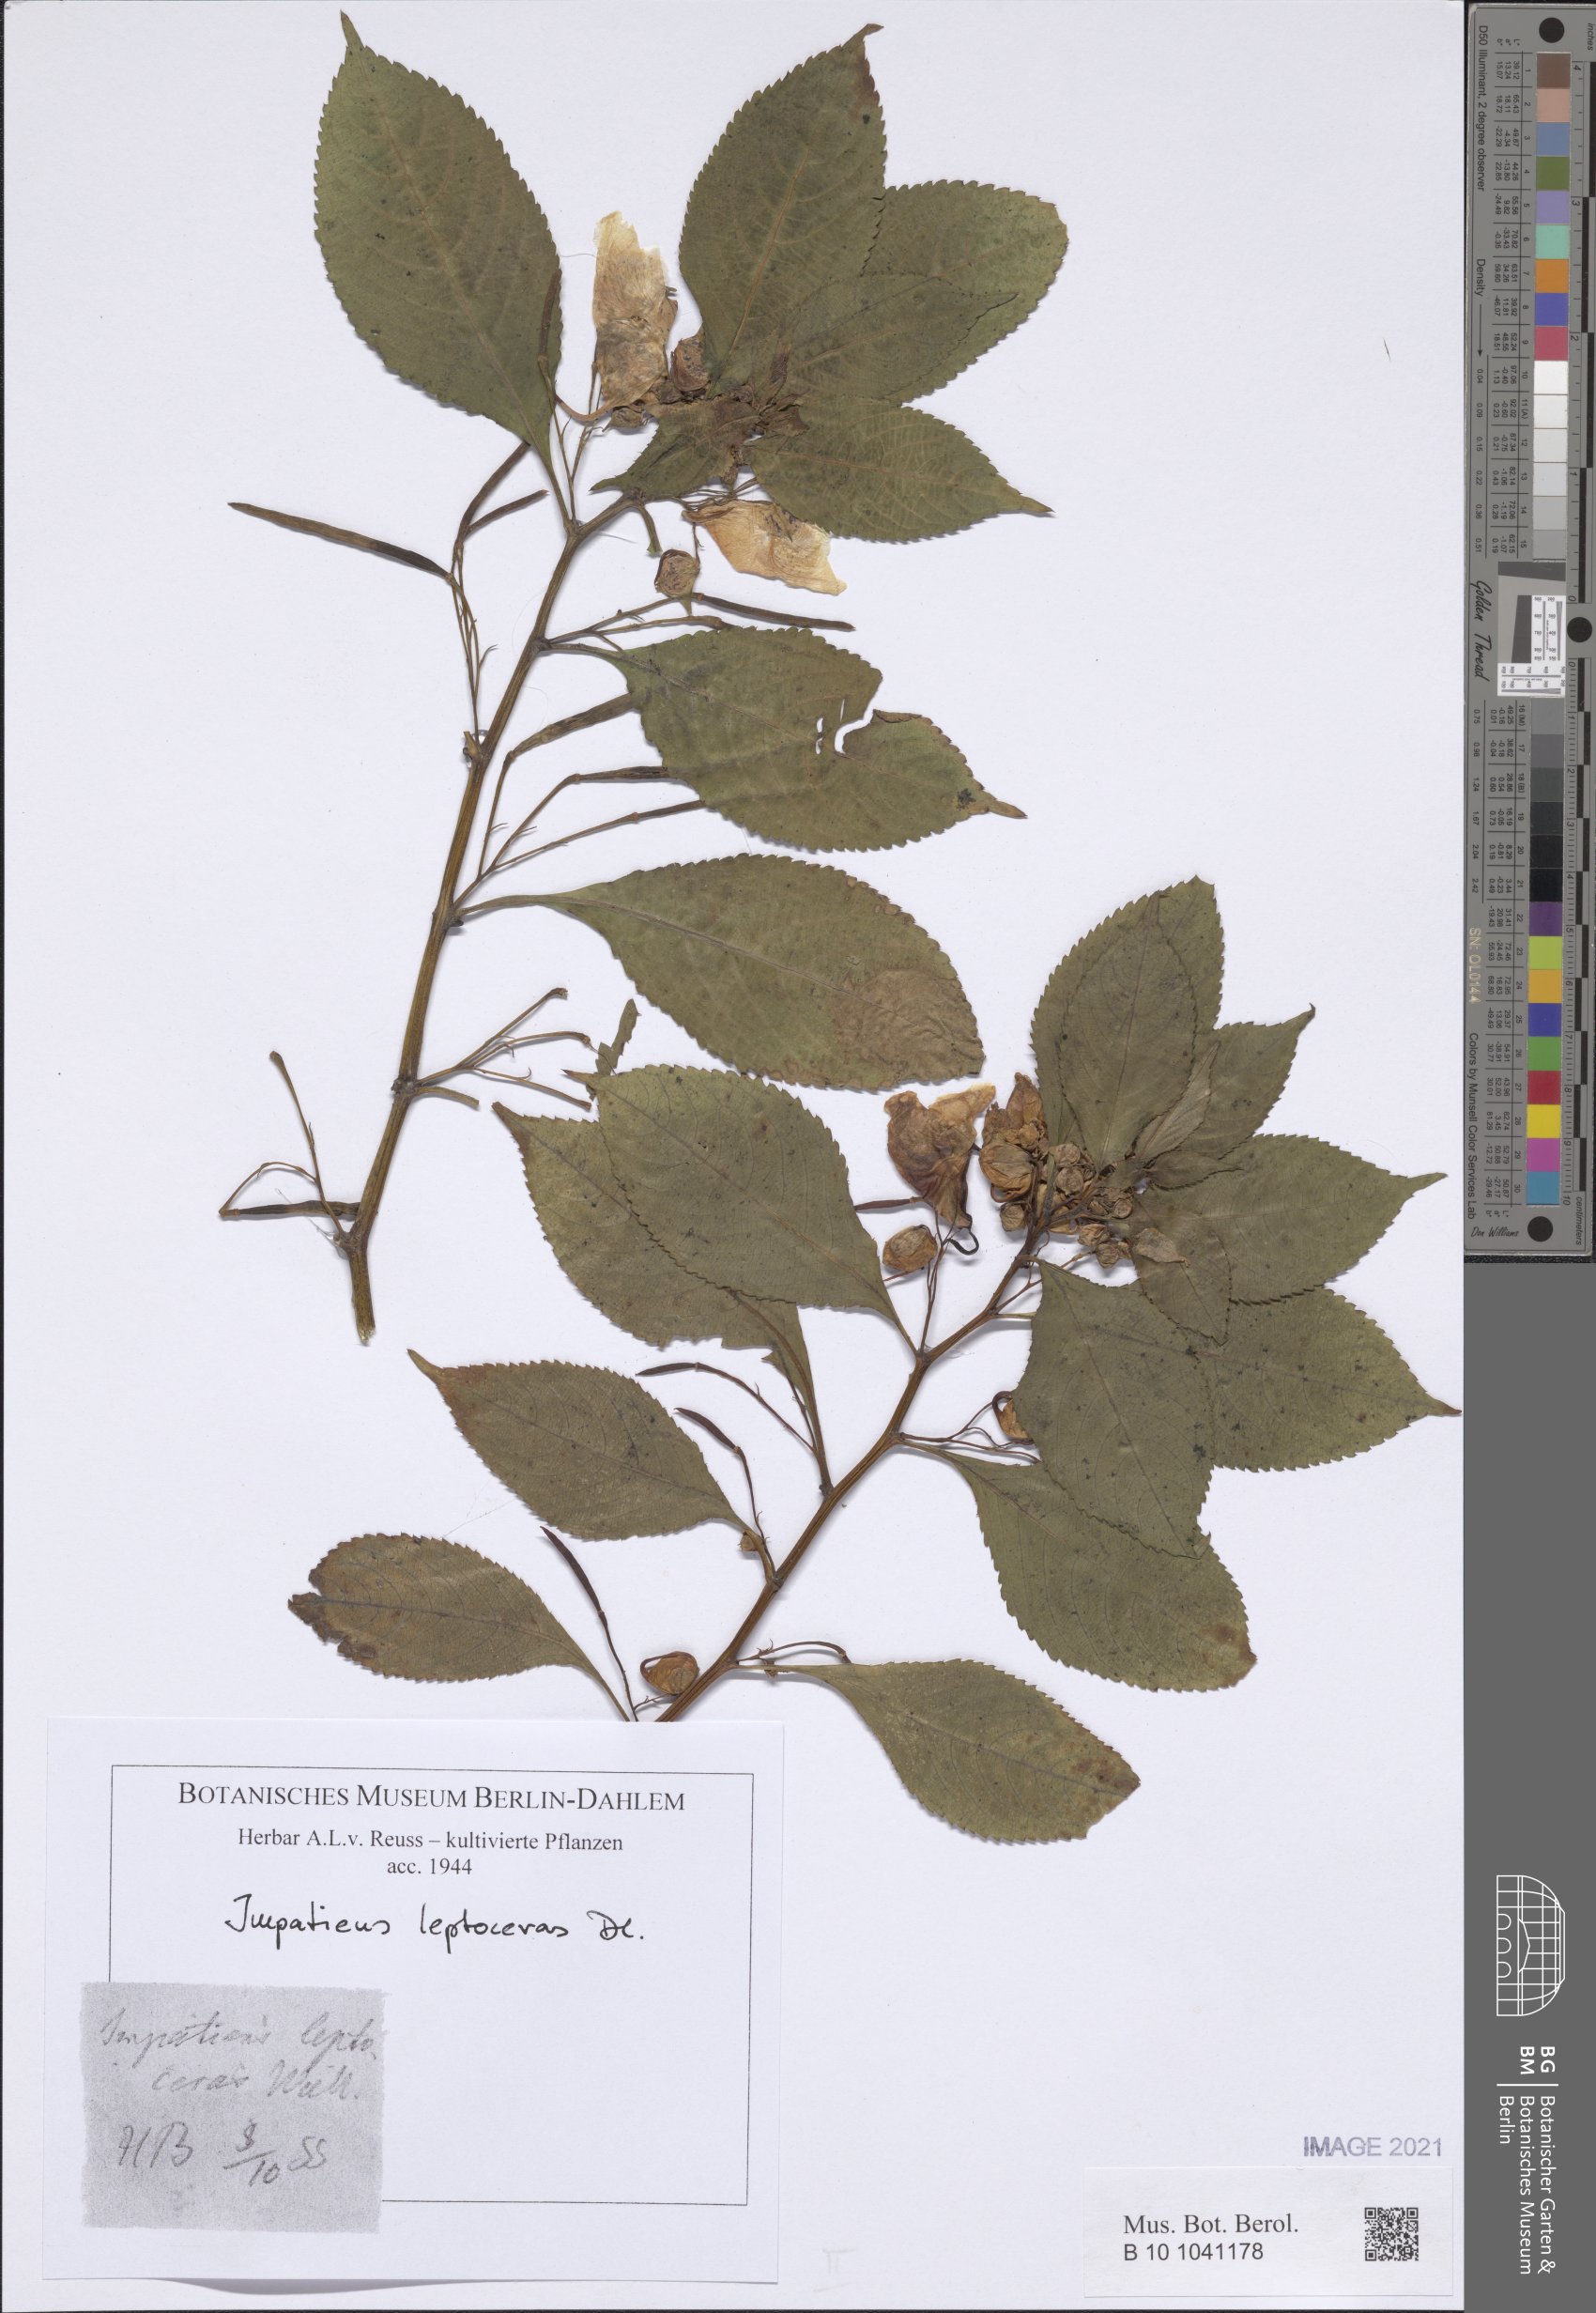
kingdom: Plantae
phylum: Tracheophyta
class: Magnoliopsida
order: Ericales
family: Balsaminaceae
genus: Impatiens
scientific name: Impatiens leptoceras
